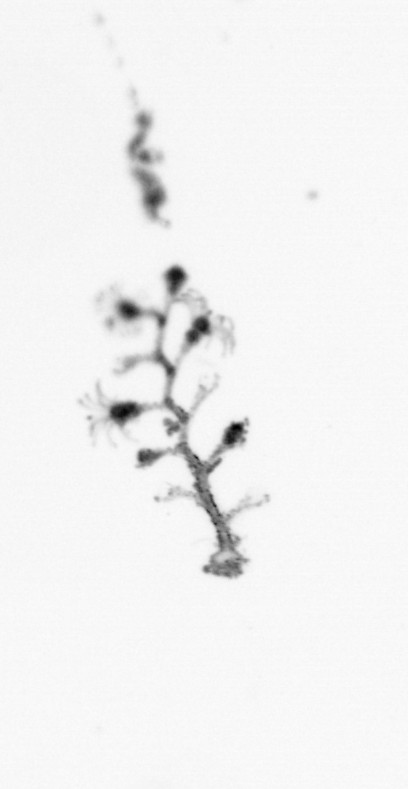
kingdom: Animalia
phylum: Cnidaria
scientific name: Cnidaria
